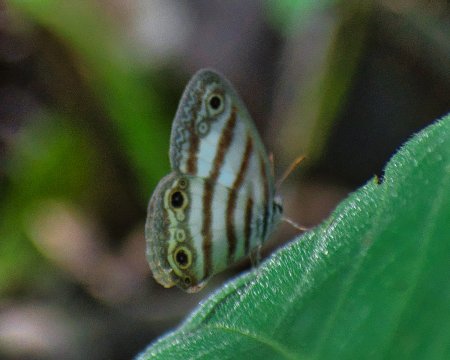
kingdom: Animalia
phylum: Arthropoda
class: Insecta
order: Lepidoptera
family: Nymphalidae
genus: Euptychia
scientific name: Euptychia mollina
